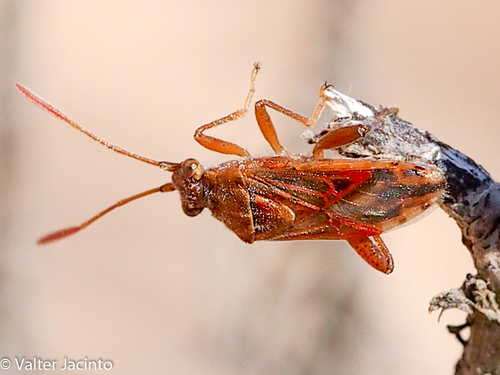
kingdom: Animalia
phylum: Arthropoda
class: Insecta
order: Hemiptera
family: Rhopalidae
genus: Stictopleurus
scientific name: Stictopleurus
